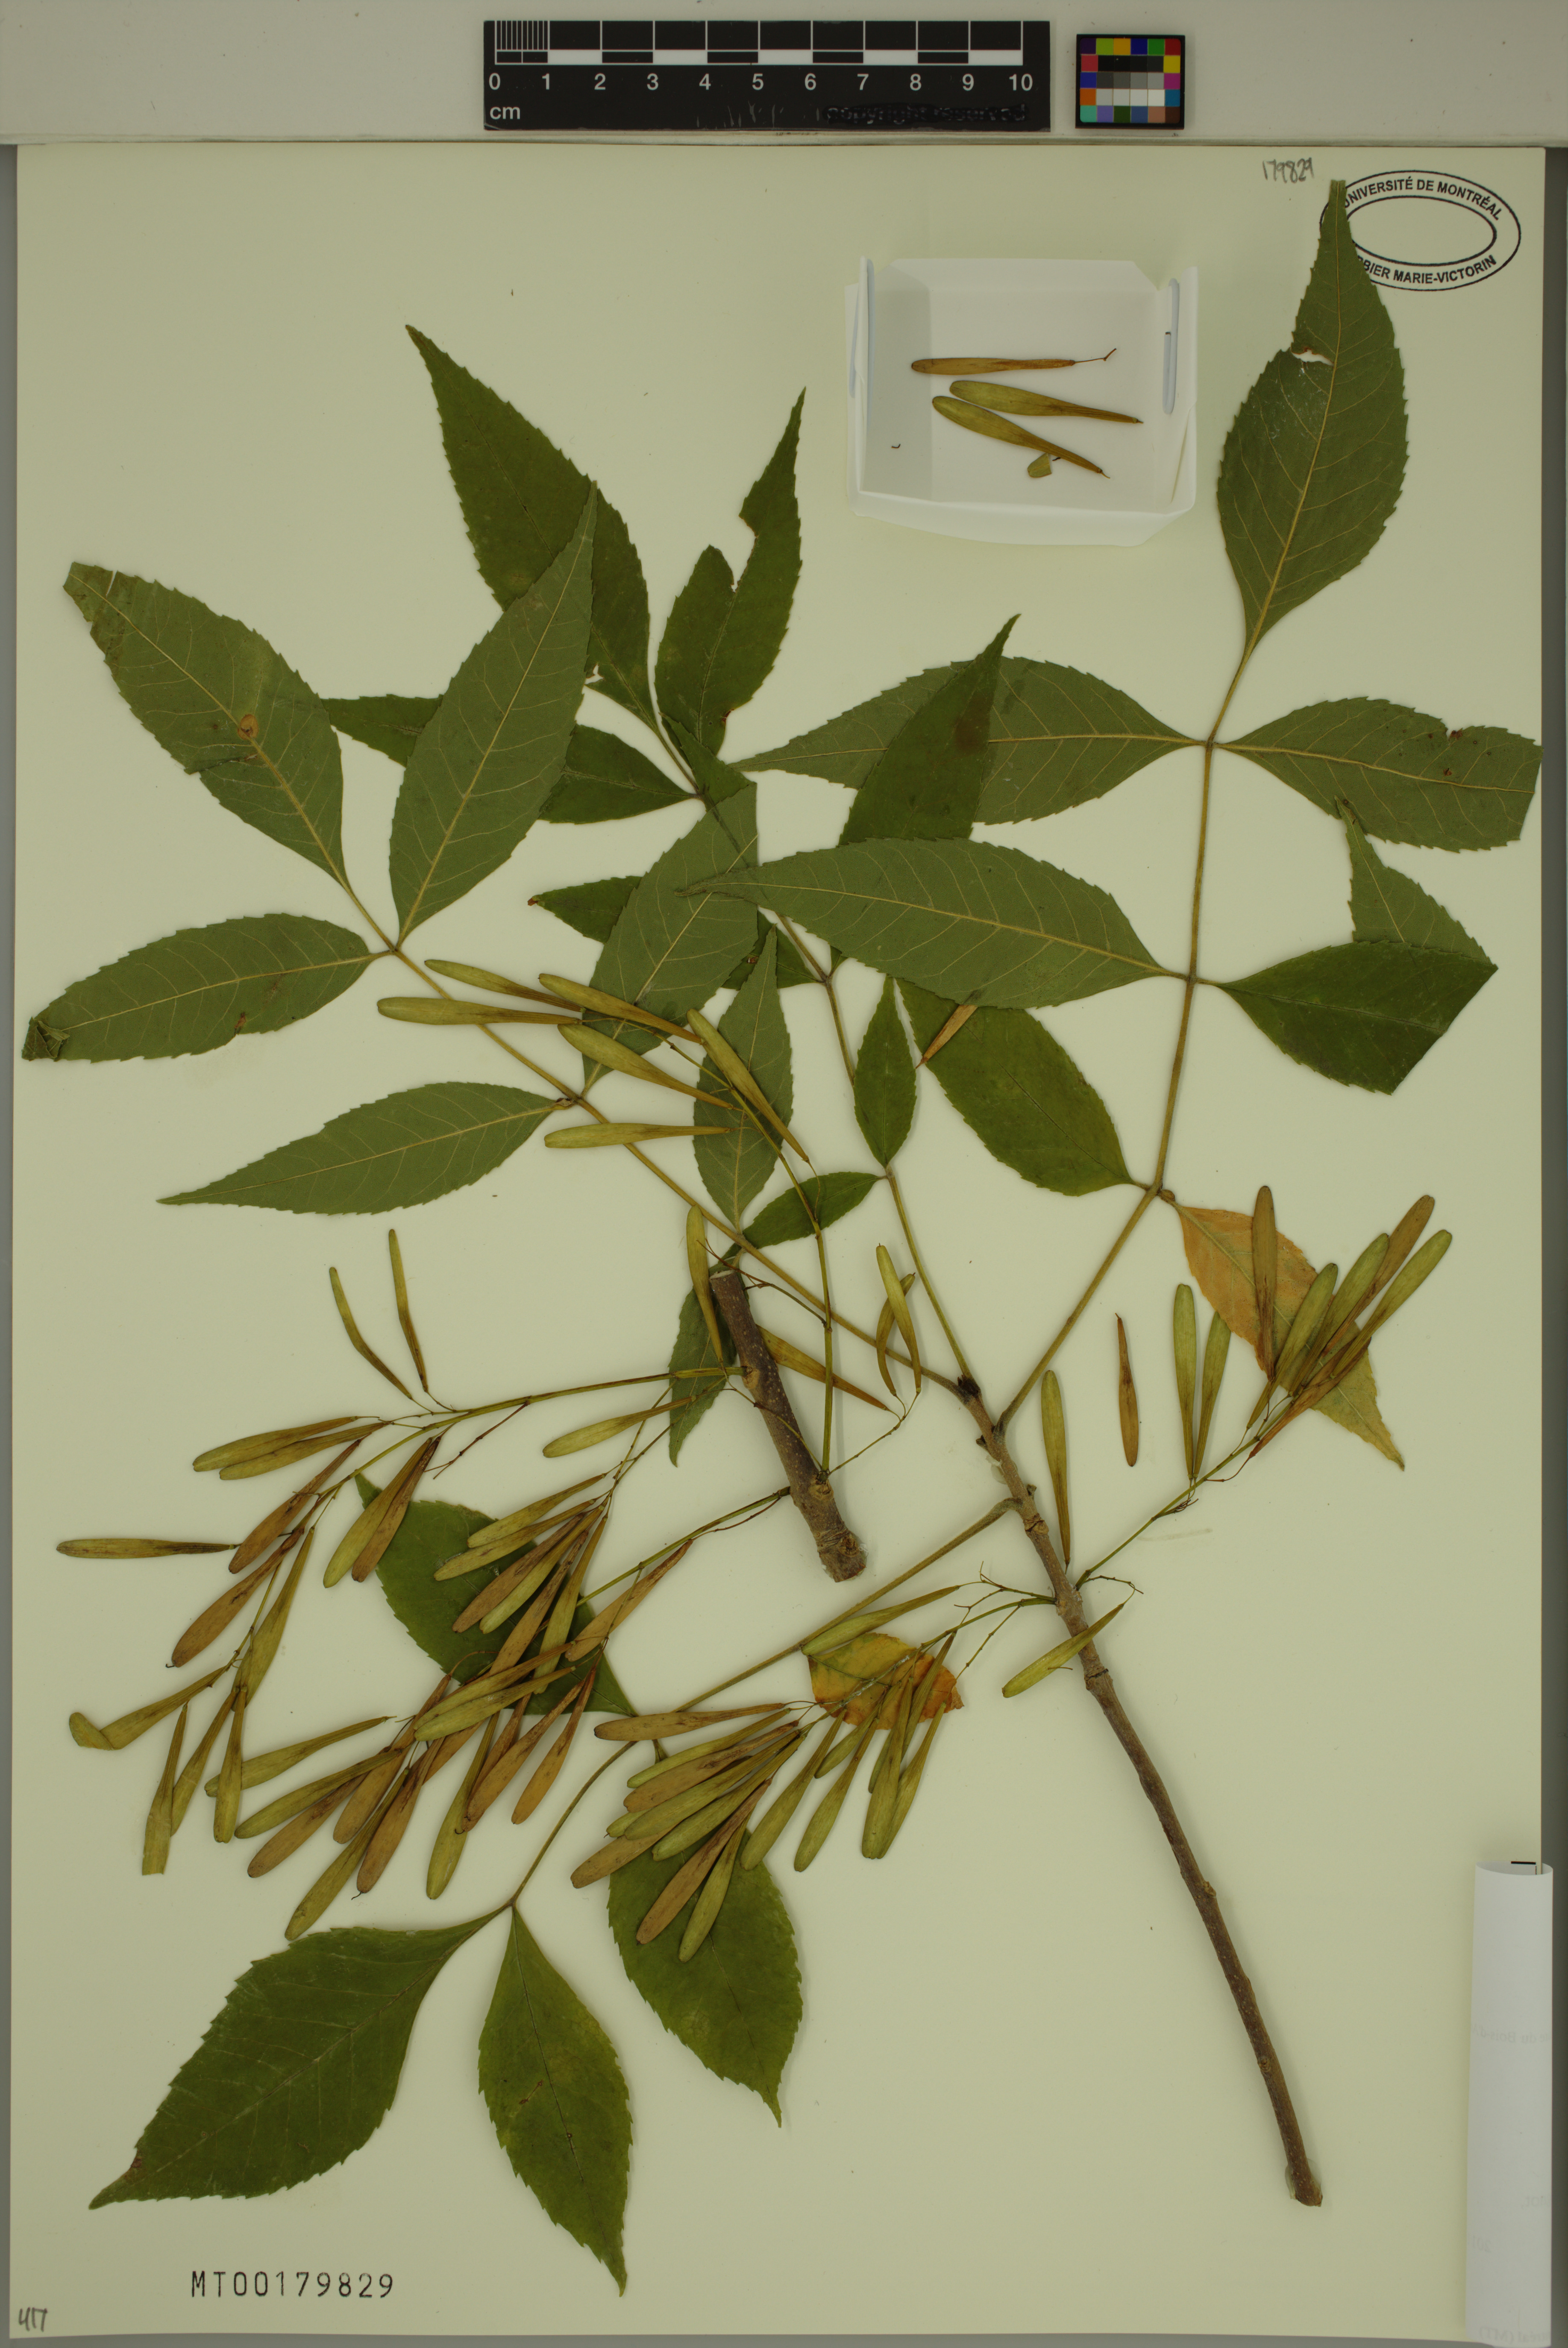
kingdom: Plantae
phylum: Tracheophyta
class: Magnoliopsida
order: Lamiales
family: Oleaceae
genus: Fraxinus
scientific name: Fraxinus pennsylvanica
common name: Green ash
